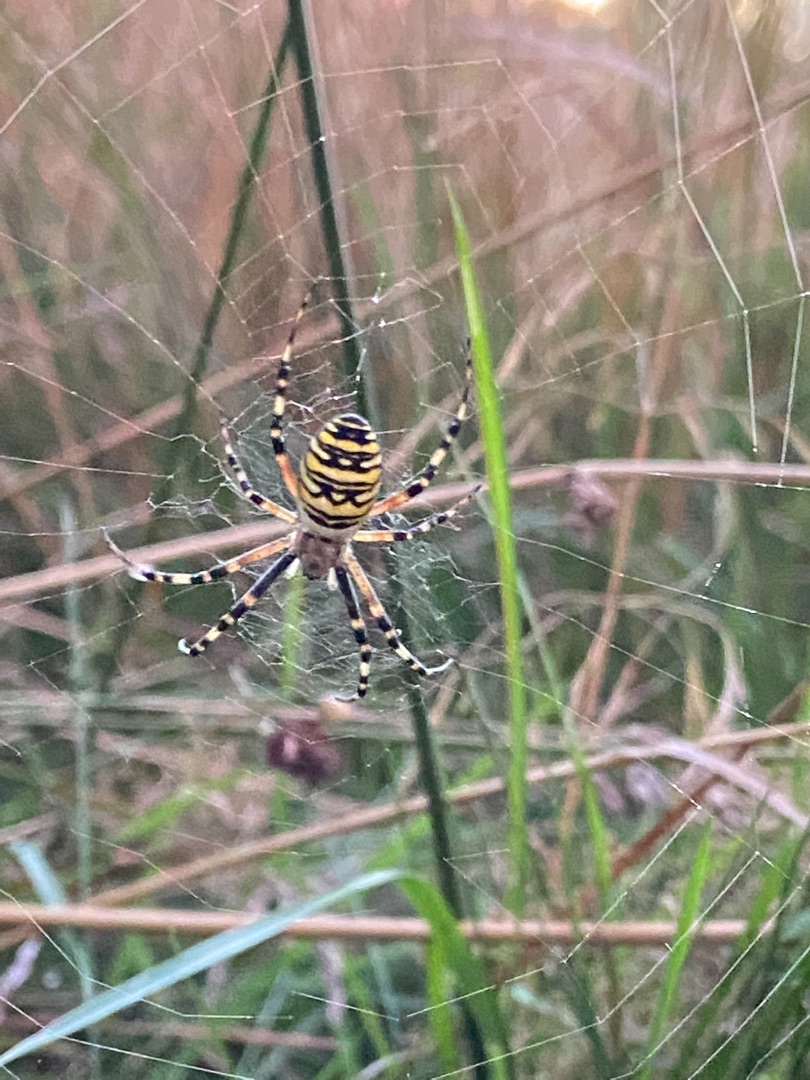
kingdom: Animalia
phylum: Arthropoda
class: Arachnida
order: Araneae
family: Araneidae
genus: Argiope
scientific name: Argiope bruennichi
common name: Hvepseedderkop
